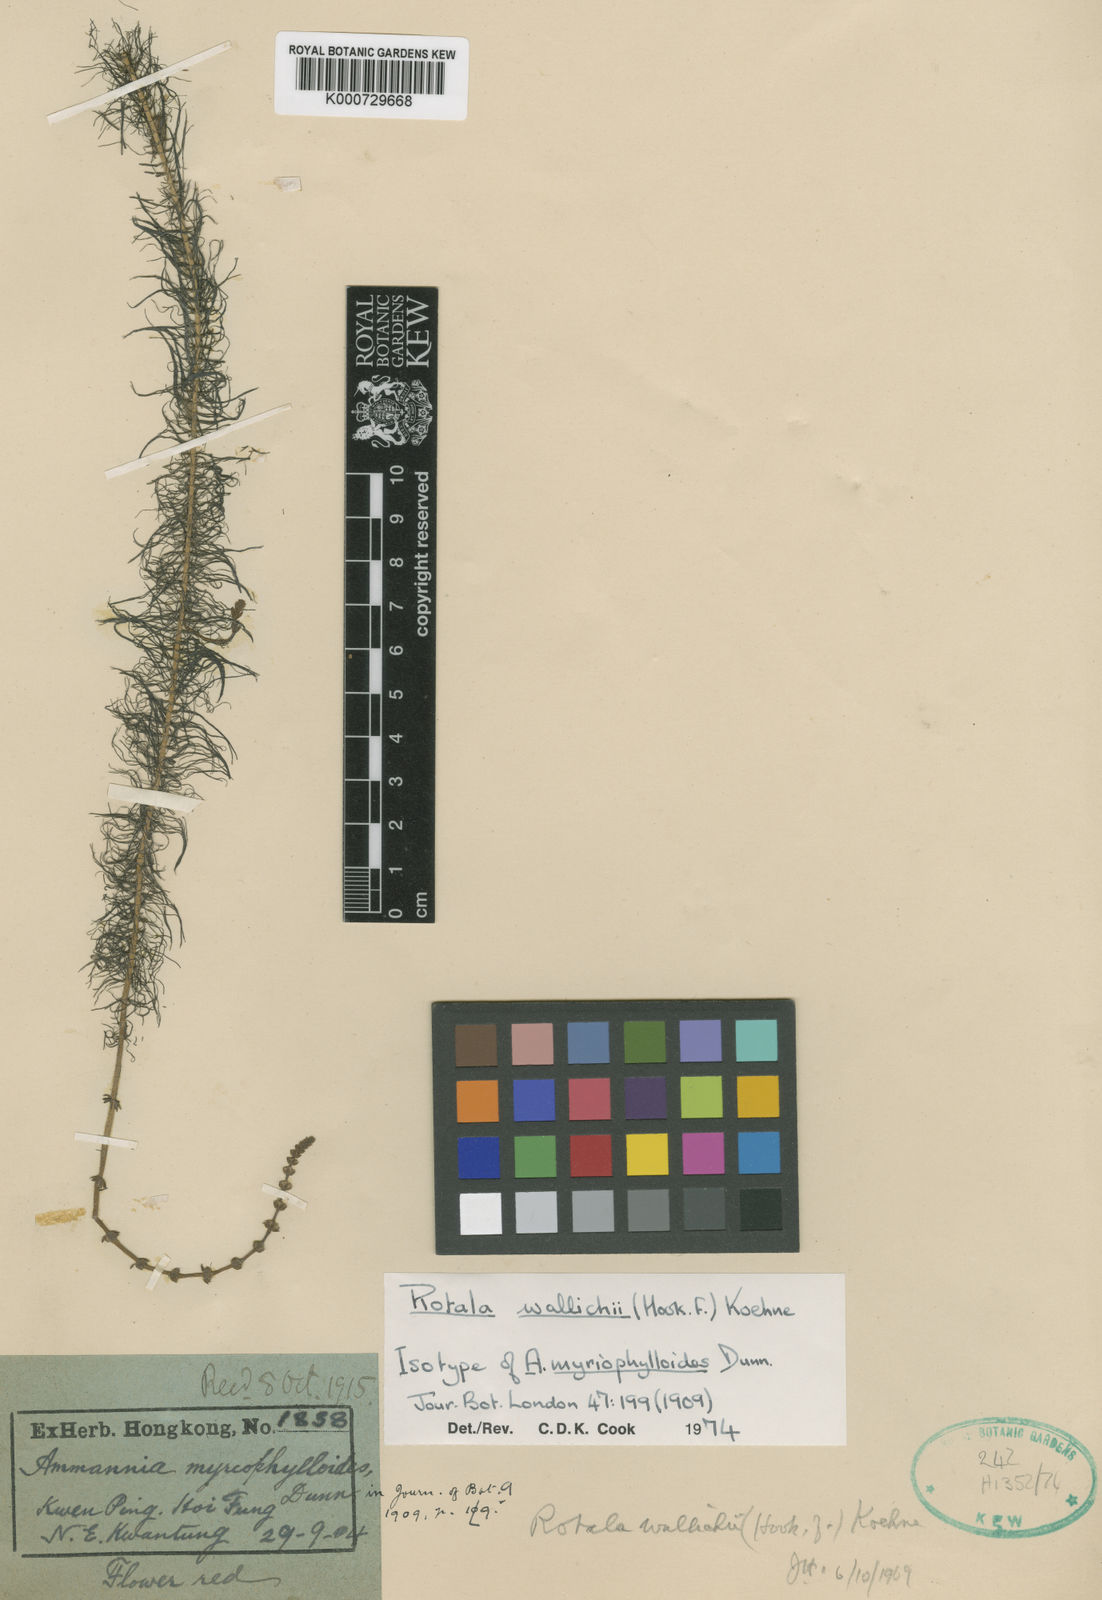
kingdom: Plantae
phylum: Tracheophyta
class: Magnoliopsida
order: Myrtales
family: Lythraceae
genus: Rotala
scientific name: Rotala wallichii
